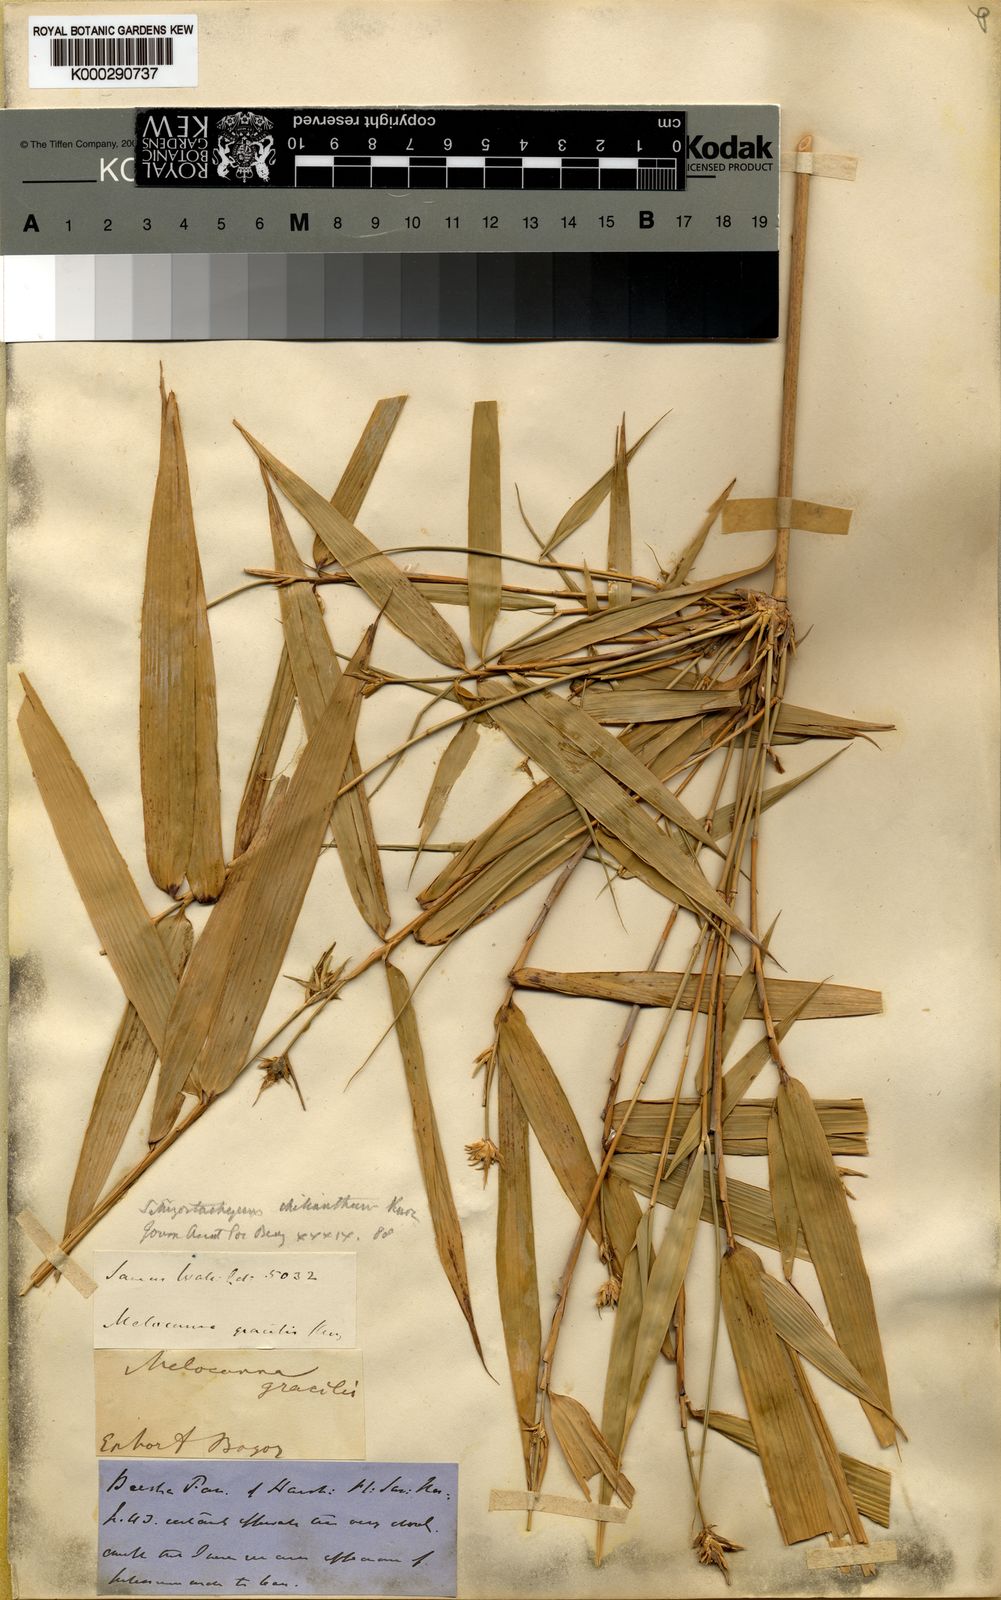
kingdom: Plantae
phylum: Tracheophyta
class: Liliopsida
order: Poales
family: Poaceae
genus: Schizostachyum
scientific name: Schizostachyum gracile
